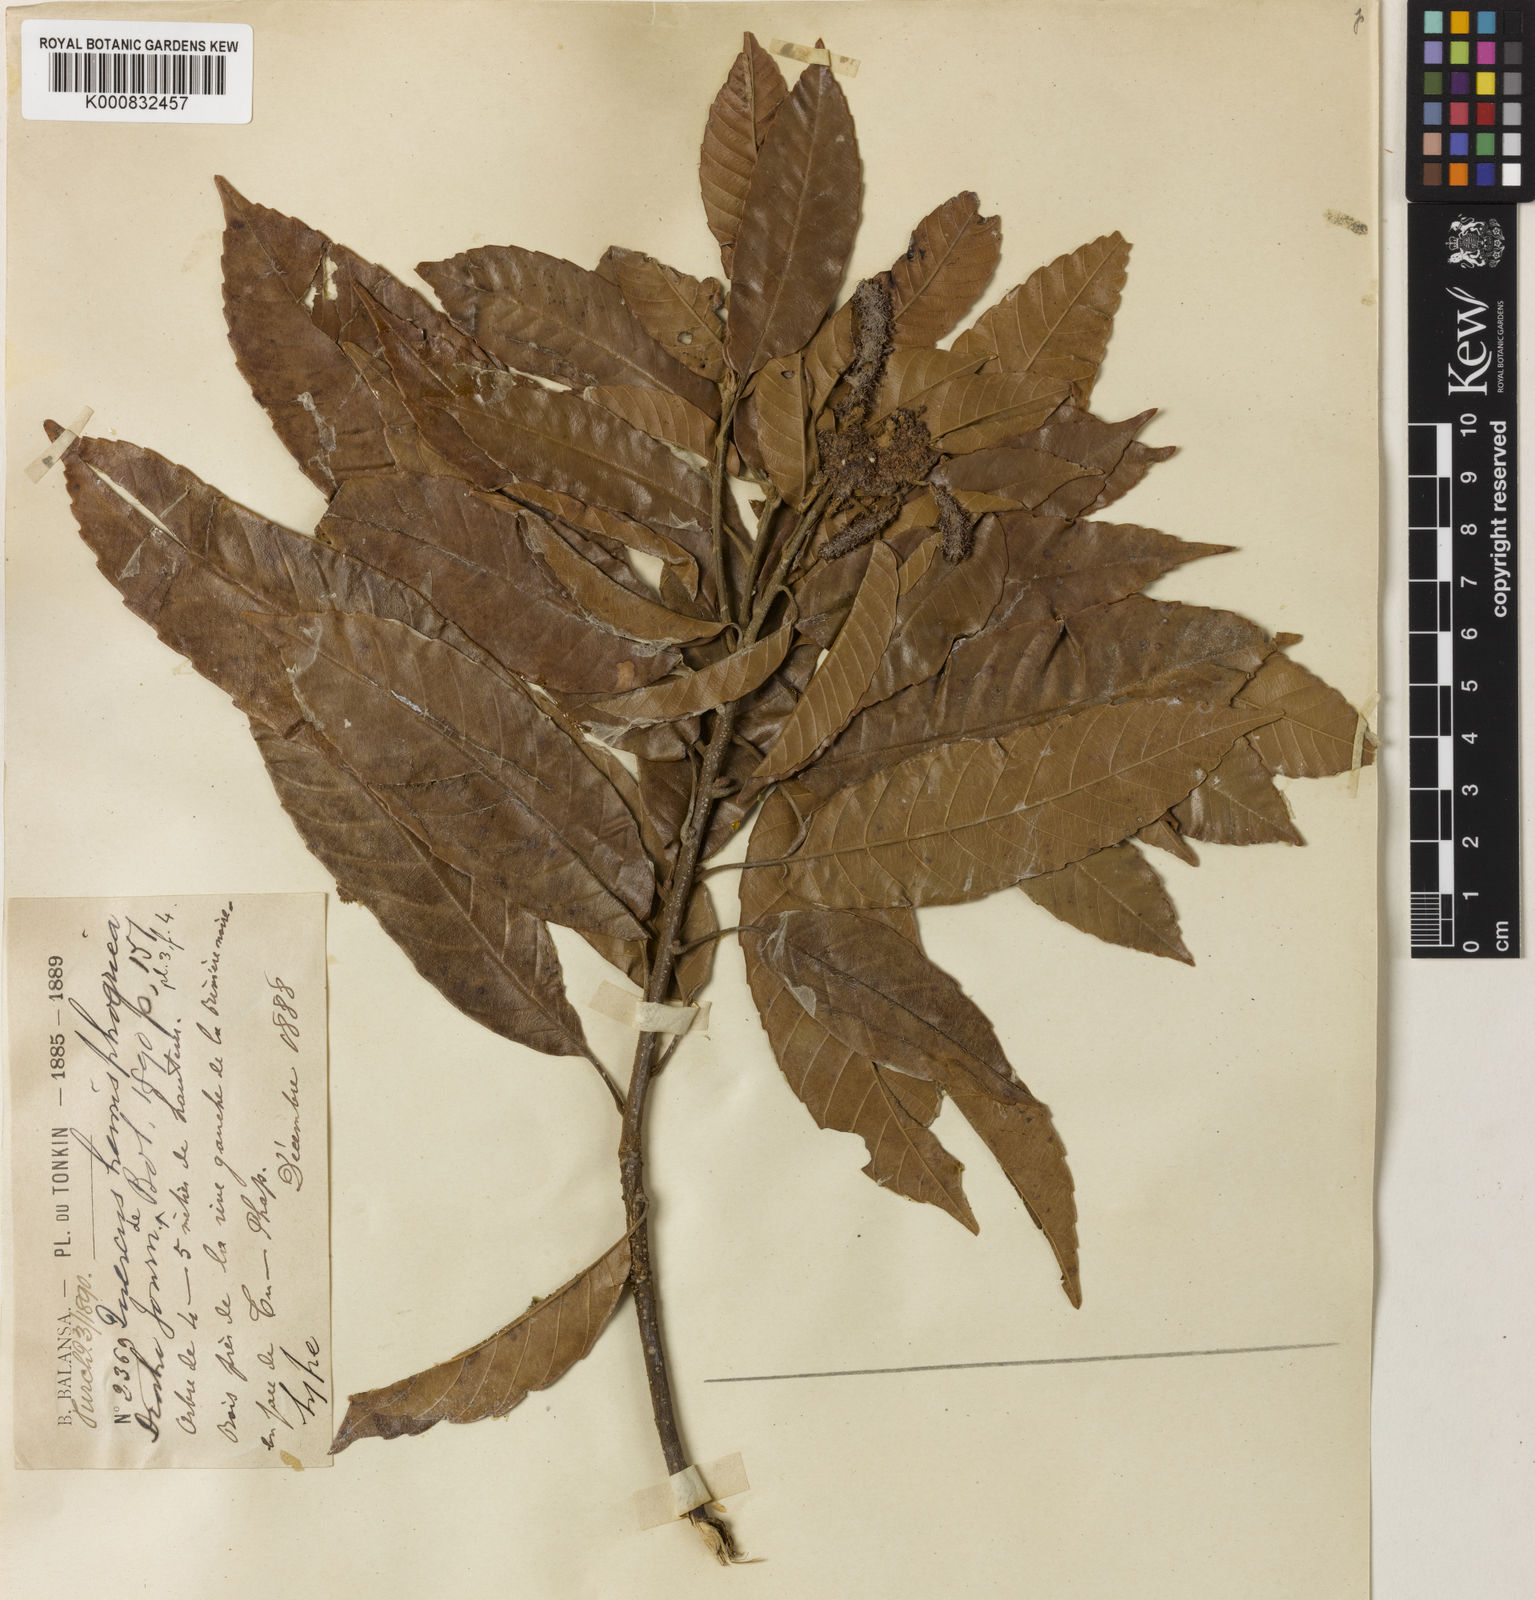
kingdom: Plantae
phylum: Tracheophyta
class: Magnoliopsida
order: Fagales
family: Fagaceae
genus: Lithocarpus
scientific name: Lithocarpus corneus
